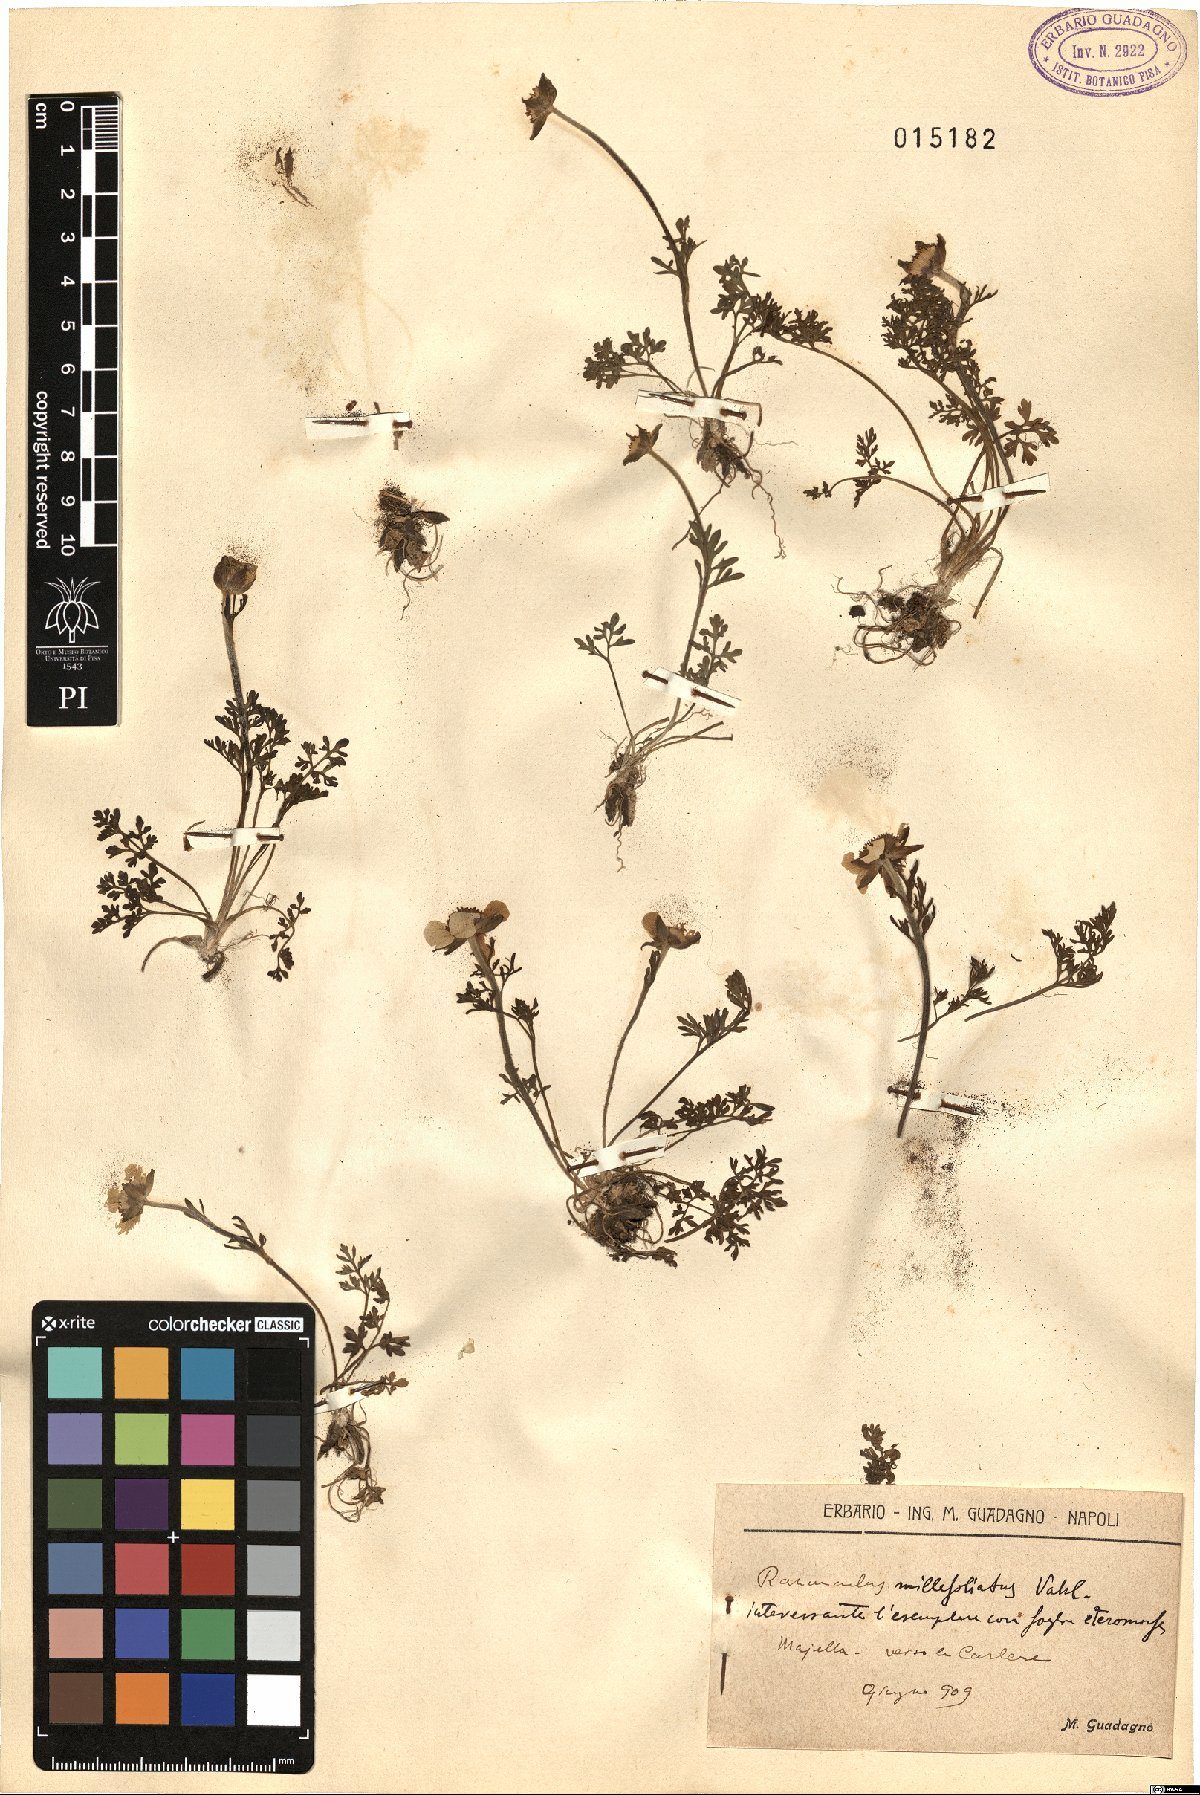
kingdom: Plantae
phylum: Tracheophyta
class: Magnoliopsida
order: Ranunculales
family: Ranunculaceae
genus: Ranunculus
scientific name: Ranunculus millefoliatus
